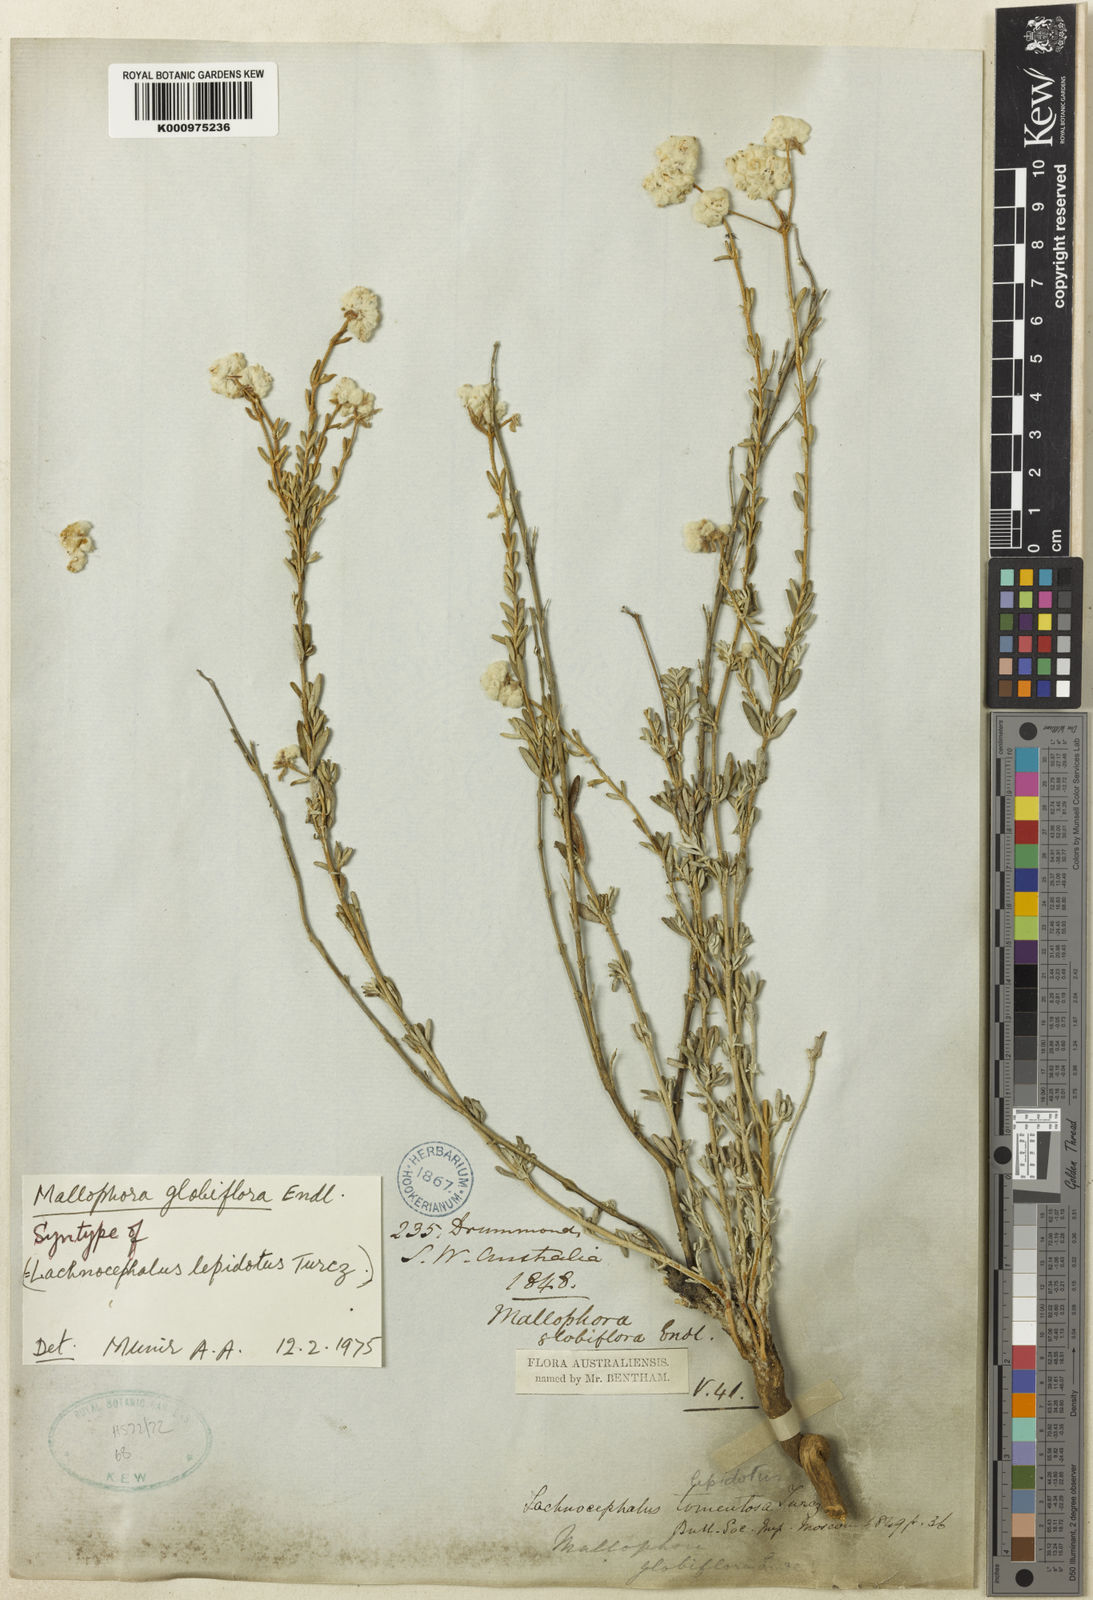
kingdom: Plantae
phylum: Tracheophyta
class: Magnoliopsida
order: Lamiales
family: Lamiaceae
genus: Dicrastylis
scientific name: Dicrastylis globiflora
